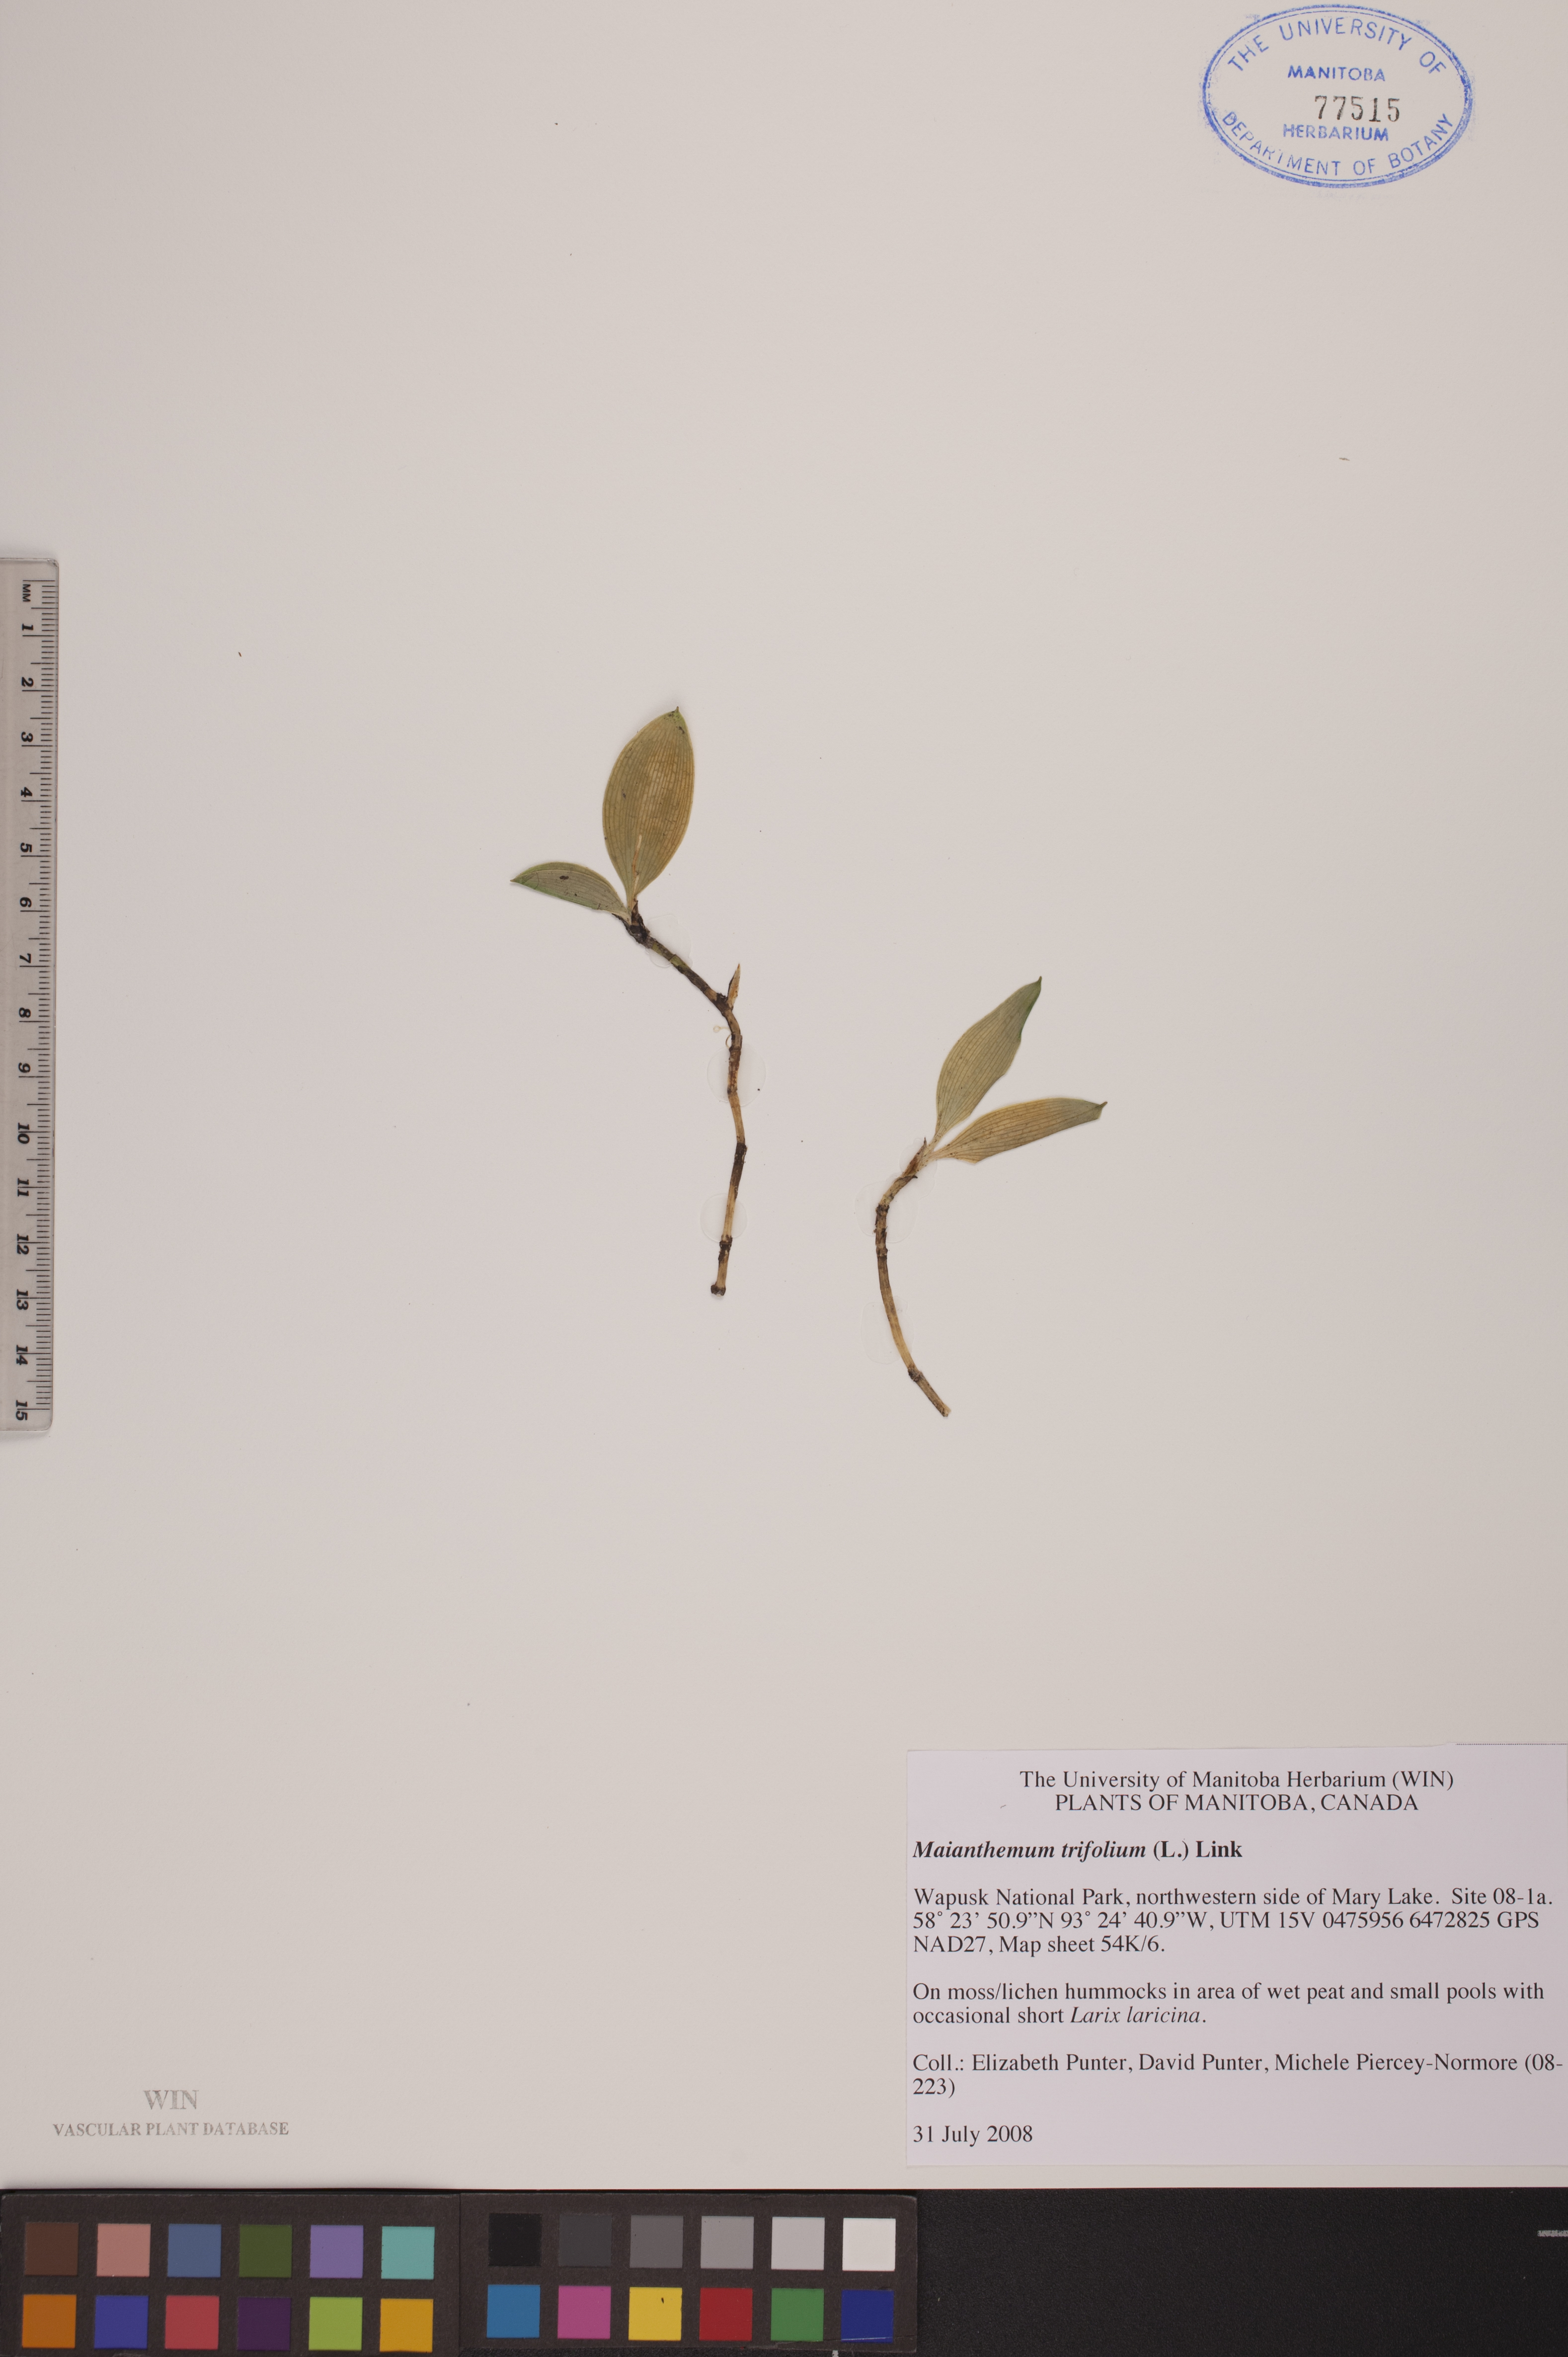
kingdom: Plantae
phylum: Tracheophyta
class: Liliopsida
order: Asparagales
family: Asparagaceae
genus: Maianthemum
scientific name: Maianthemum trifolium
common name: Swamp false solomon's seal
